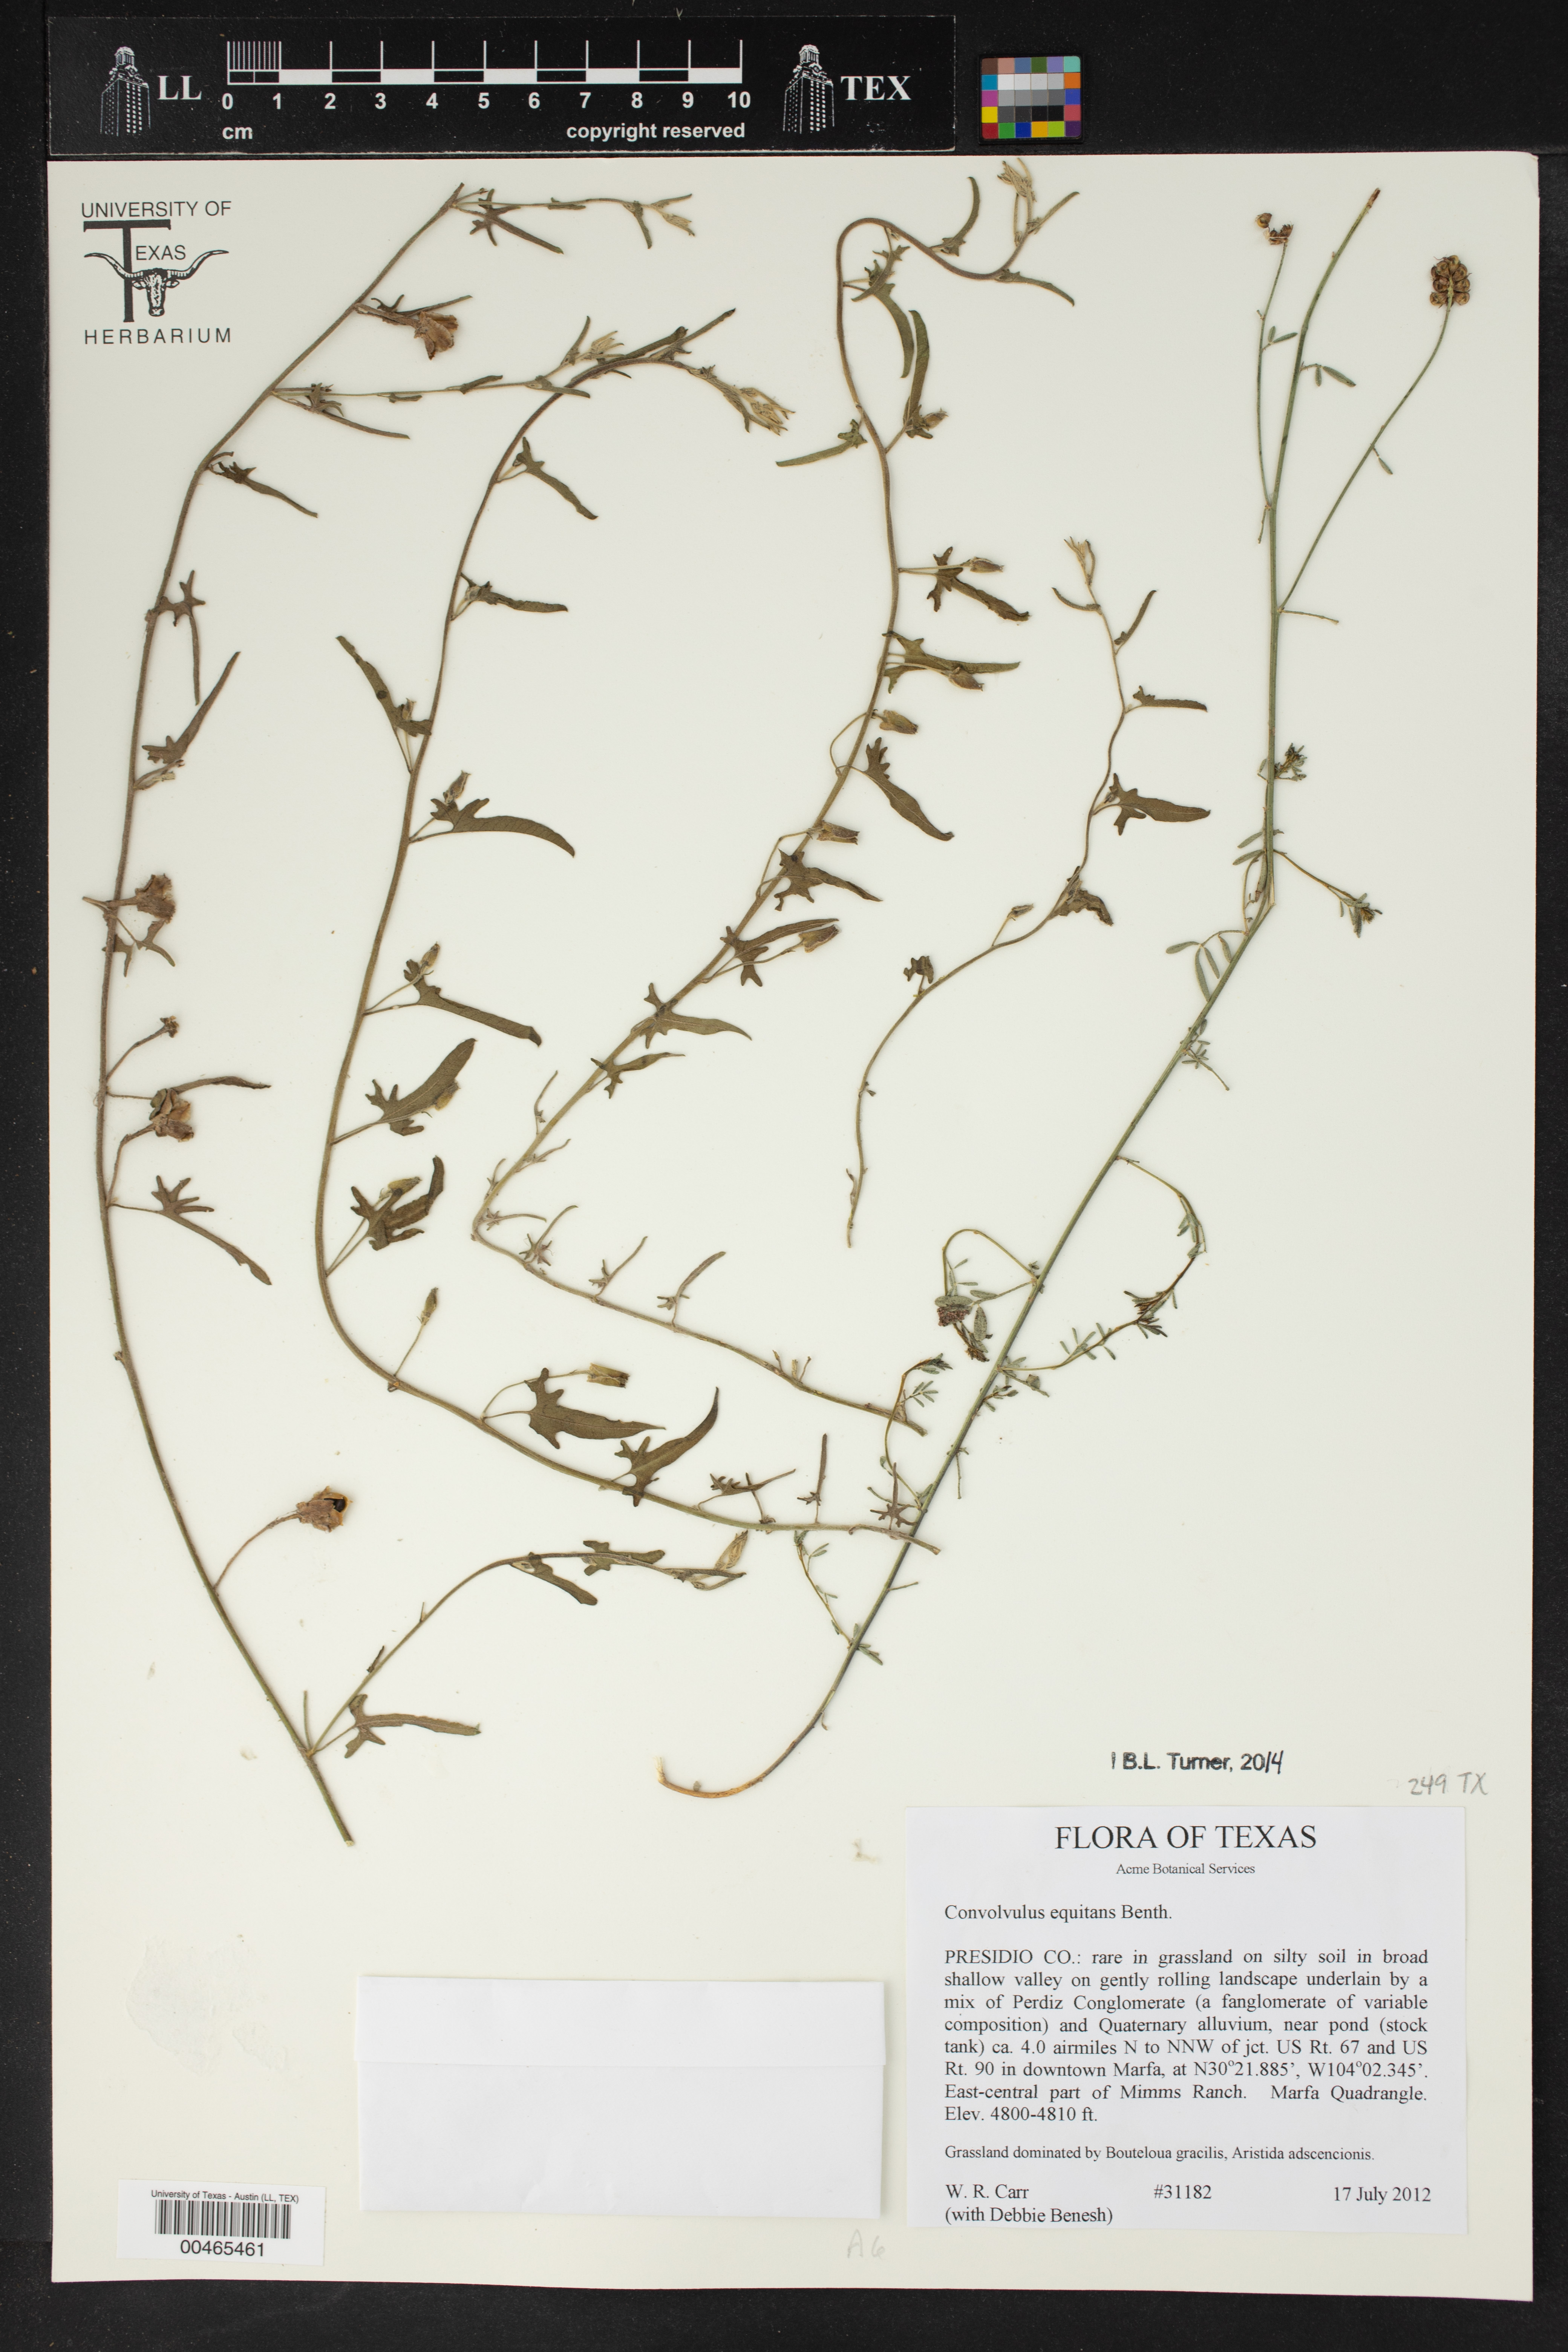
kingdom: Plantae
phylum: Tracheophyta
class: Magnoliopsida
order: Solanales
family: Convolvulaceae
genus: Convolvulus
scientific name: Convolvulus equitans
